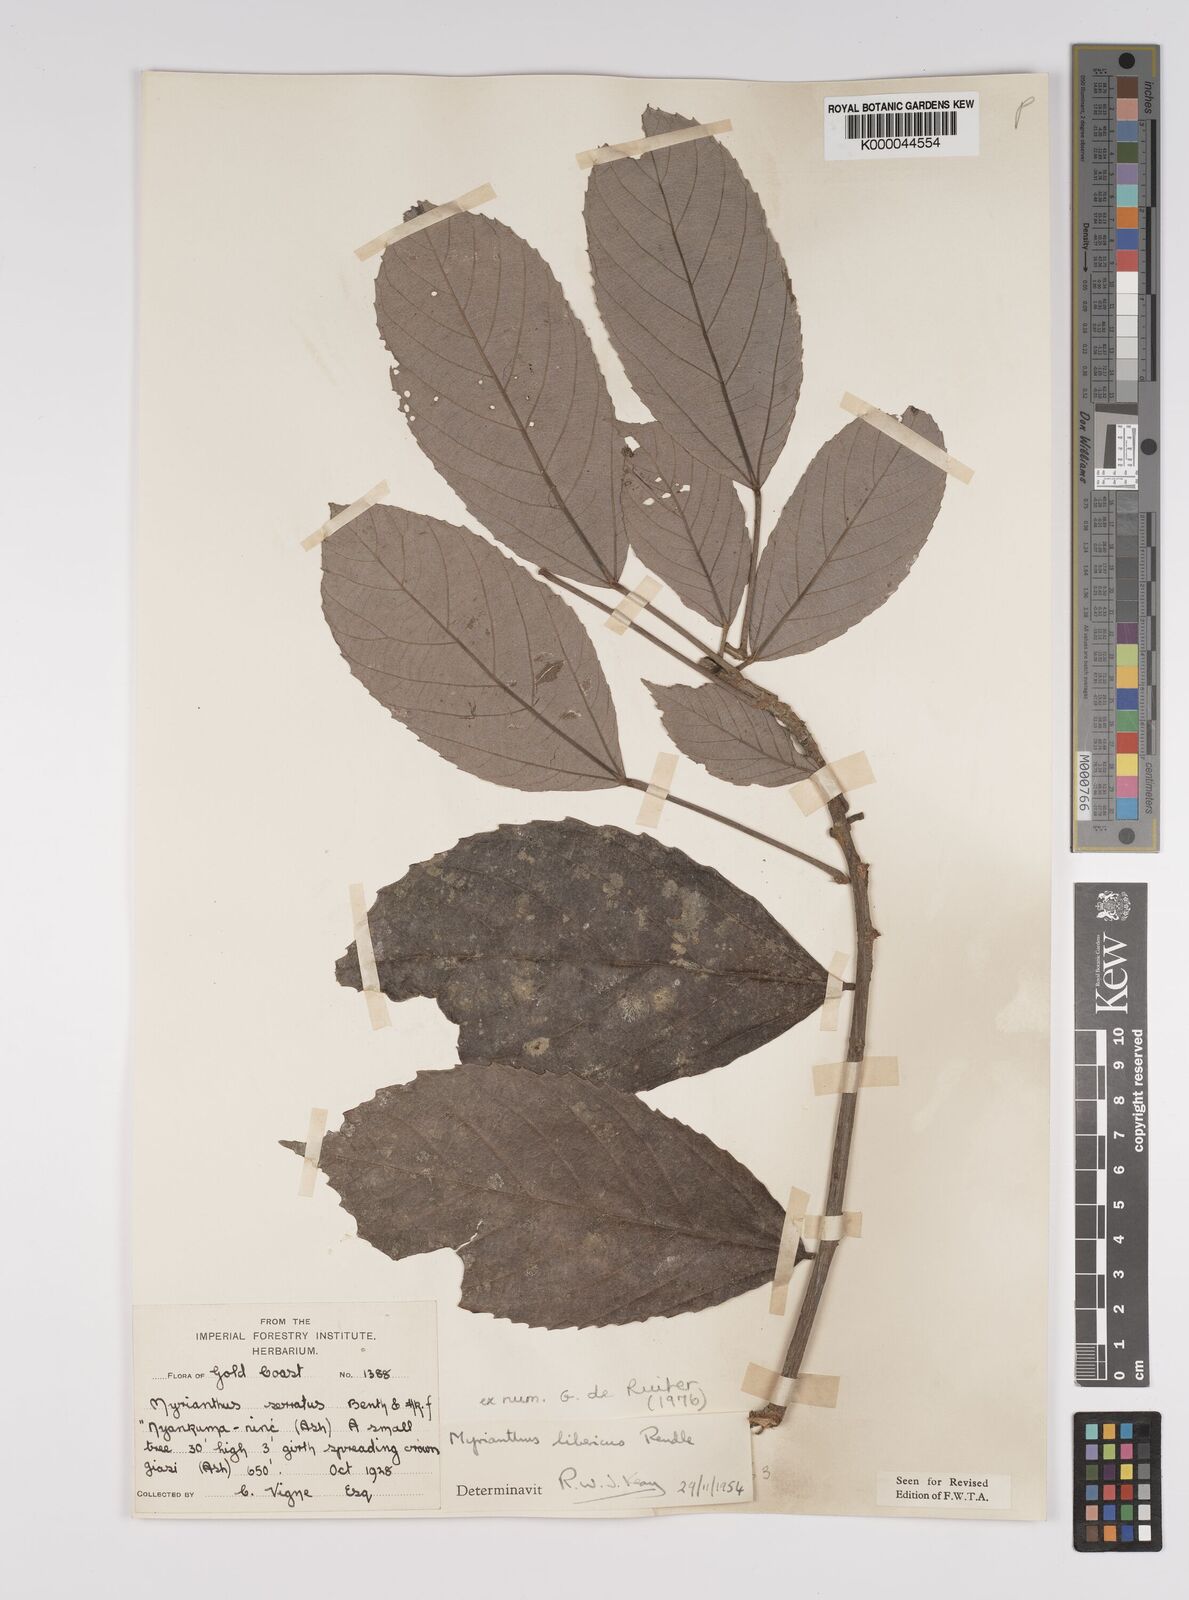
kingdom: Plantae
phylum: Tracheophyta
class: Magnoliopsida
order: Rosales
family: Urticaceae
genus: Myrianthus
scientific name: Myrianthus libericus
